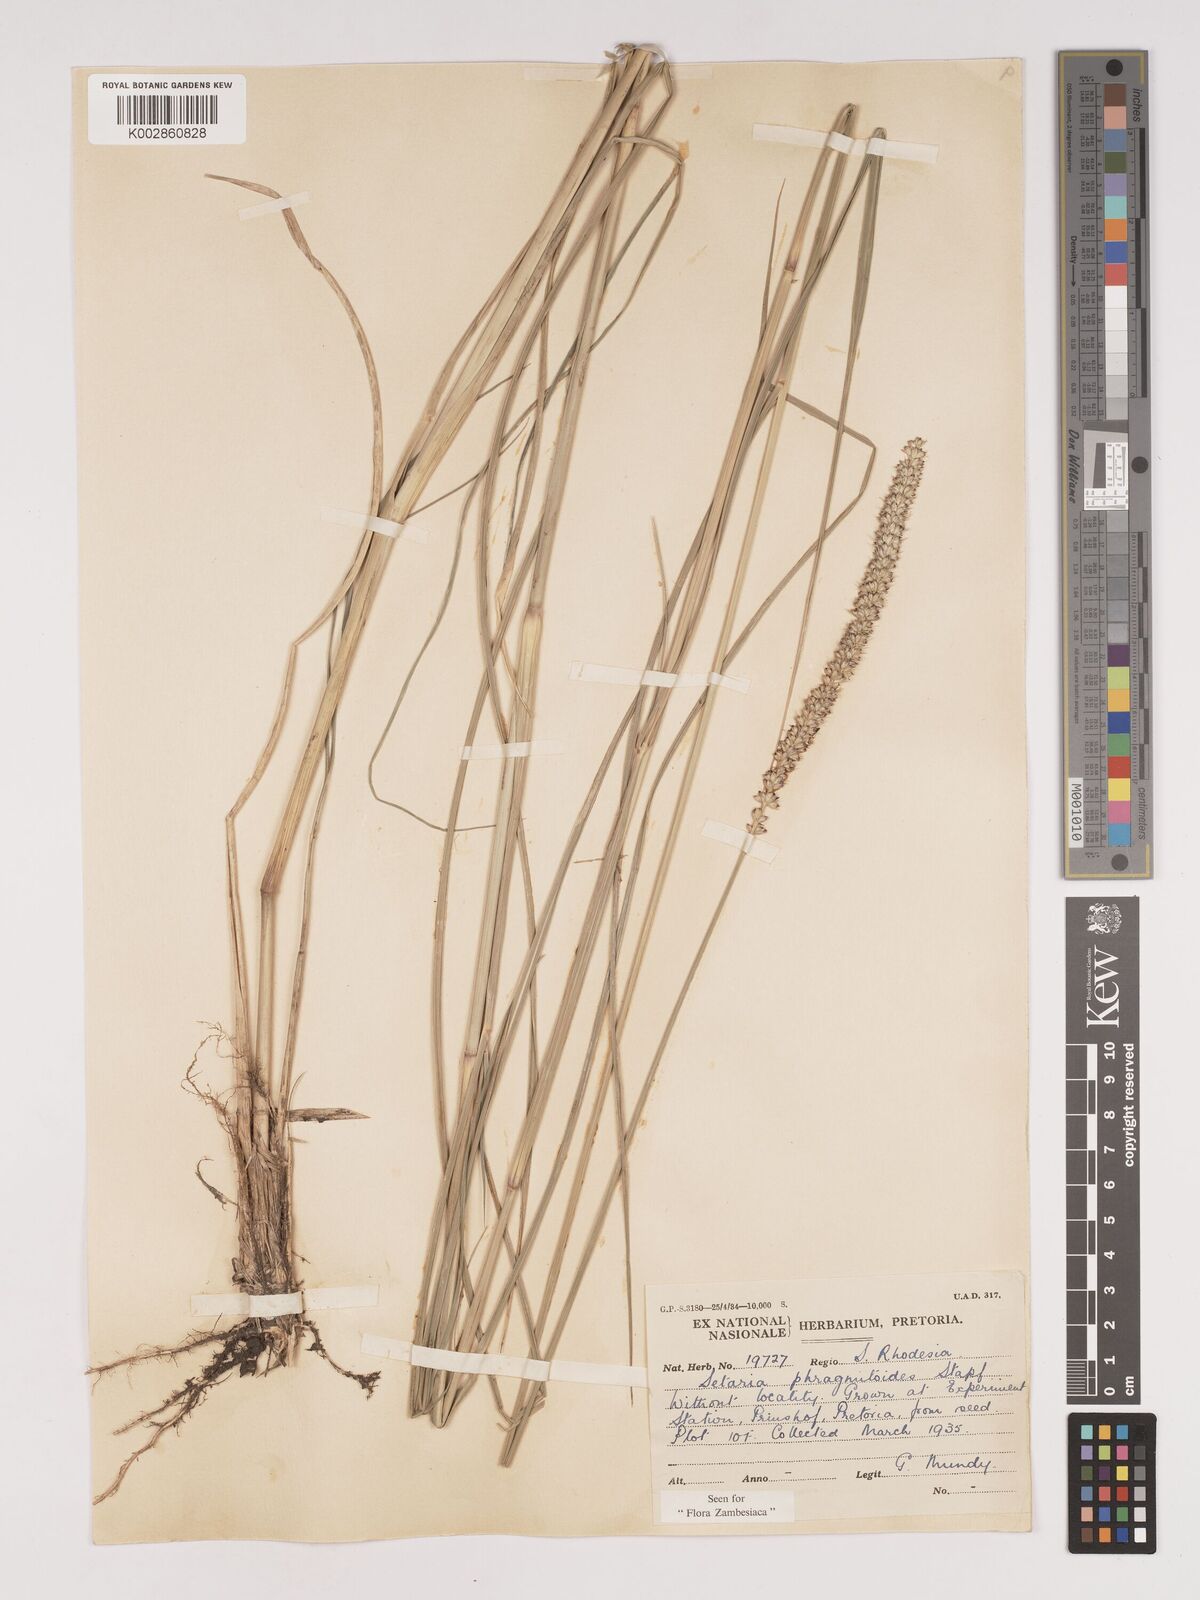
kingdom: Plantae
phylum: Tracheophyta
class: Liliopsida
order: Poales
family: Poaceae
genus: Setaria
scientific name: Setaria incrassata
